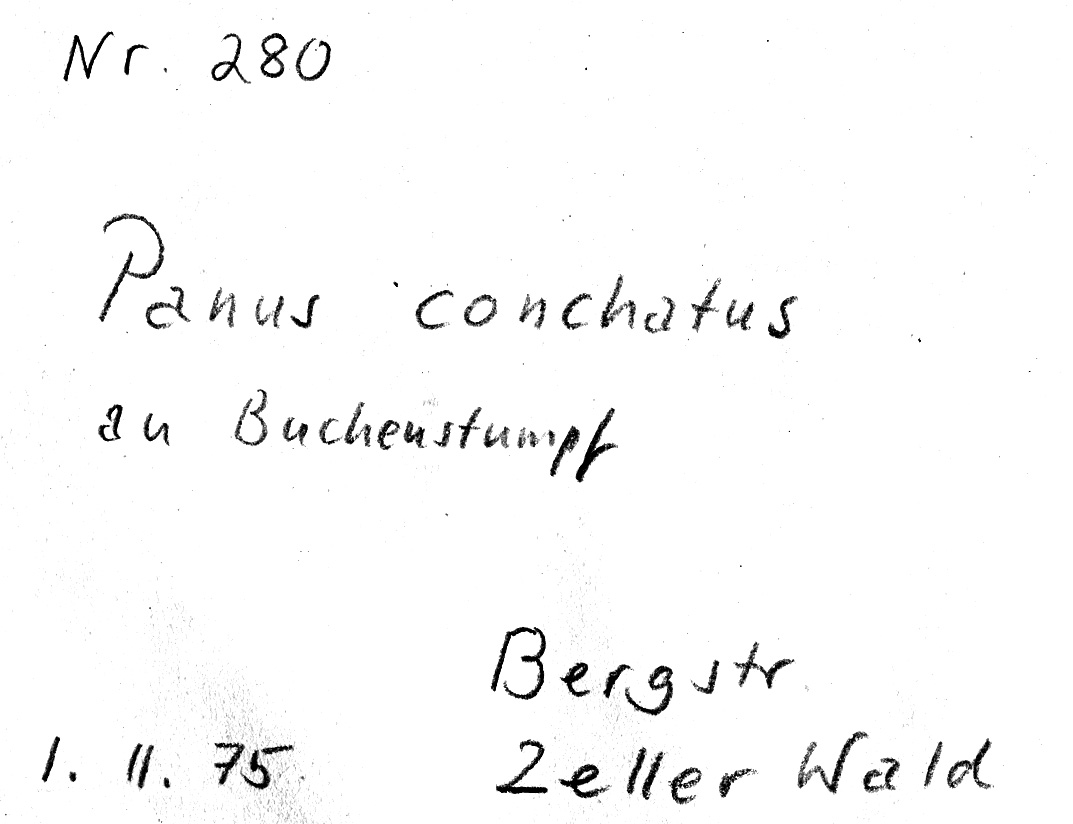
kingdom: Plantae
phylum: Tracheophyta
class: Magnoliopsida
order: Fagales
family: Fagaceae
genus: Fagus
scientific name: Fagus sylvatica
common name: Beech
